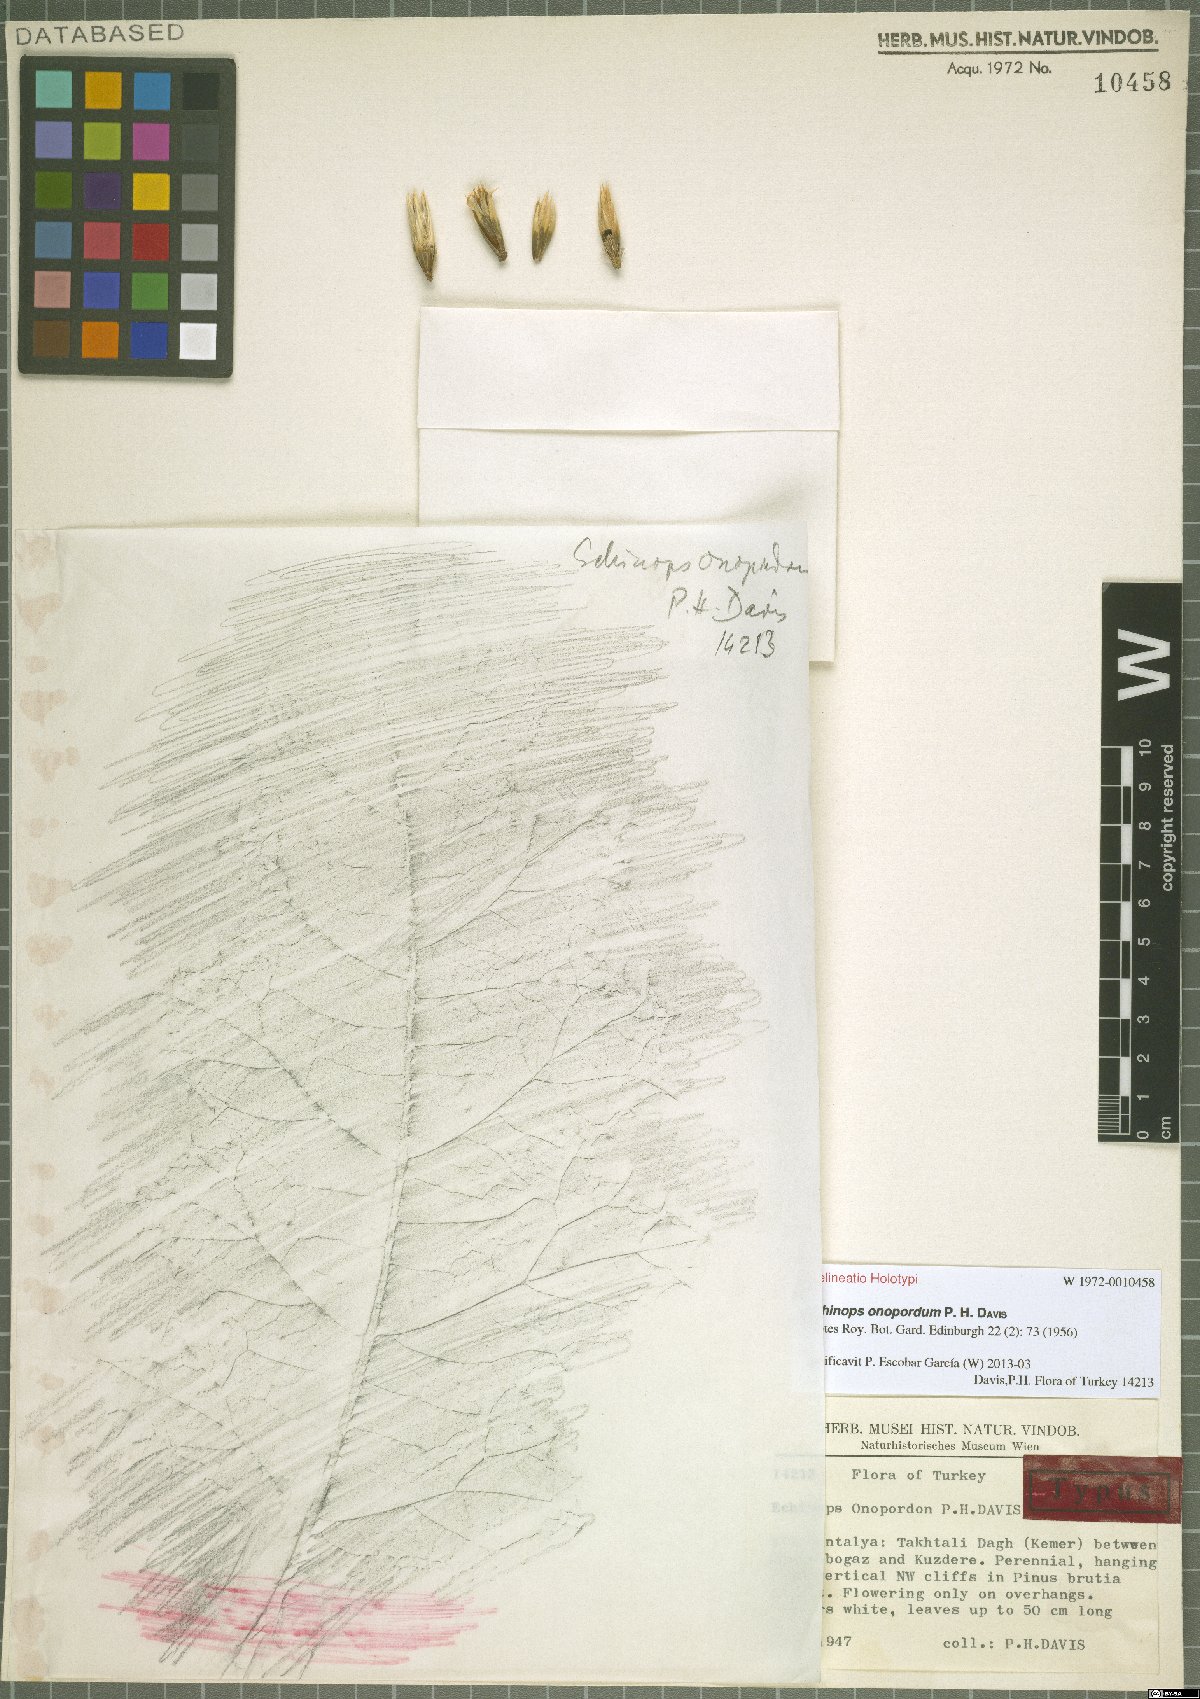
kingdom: Plantae
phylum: Tracheophyta
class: Magnoliopsida
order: Asterales
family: Asteraceae
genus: Echinops
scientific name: Echinops onopordum
